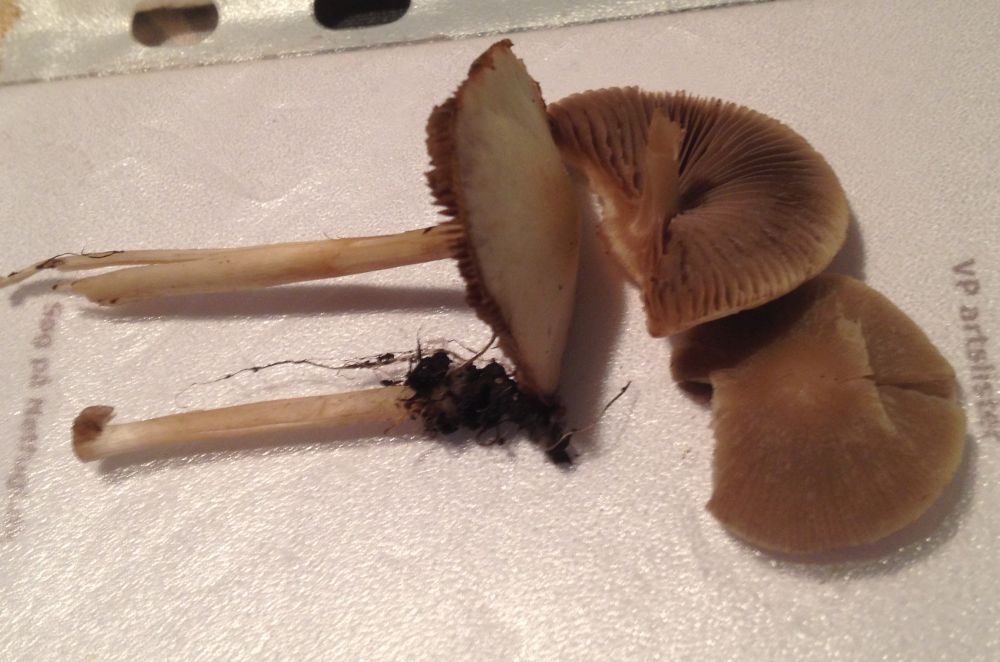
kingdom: Fungi
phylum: Basidiomycota
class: Agaricomycetes
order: Agaricales
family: Psathyrellaceae
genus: Psathyrella
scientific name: Psathyrella spadiceogrisea
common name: gråbrun mørkhat
